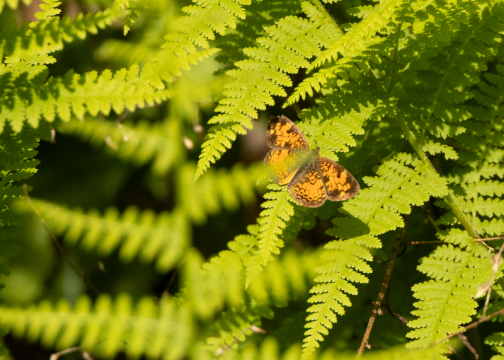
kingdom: Animalia
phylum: Arthropoda
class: Insecta
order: Lepidoptera
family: Nymphalidae
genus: Phyciodes
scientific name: Phyciodes
